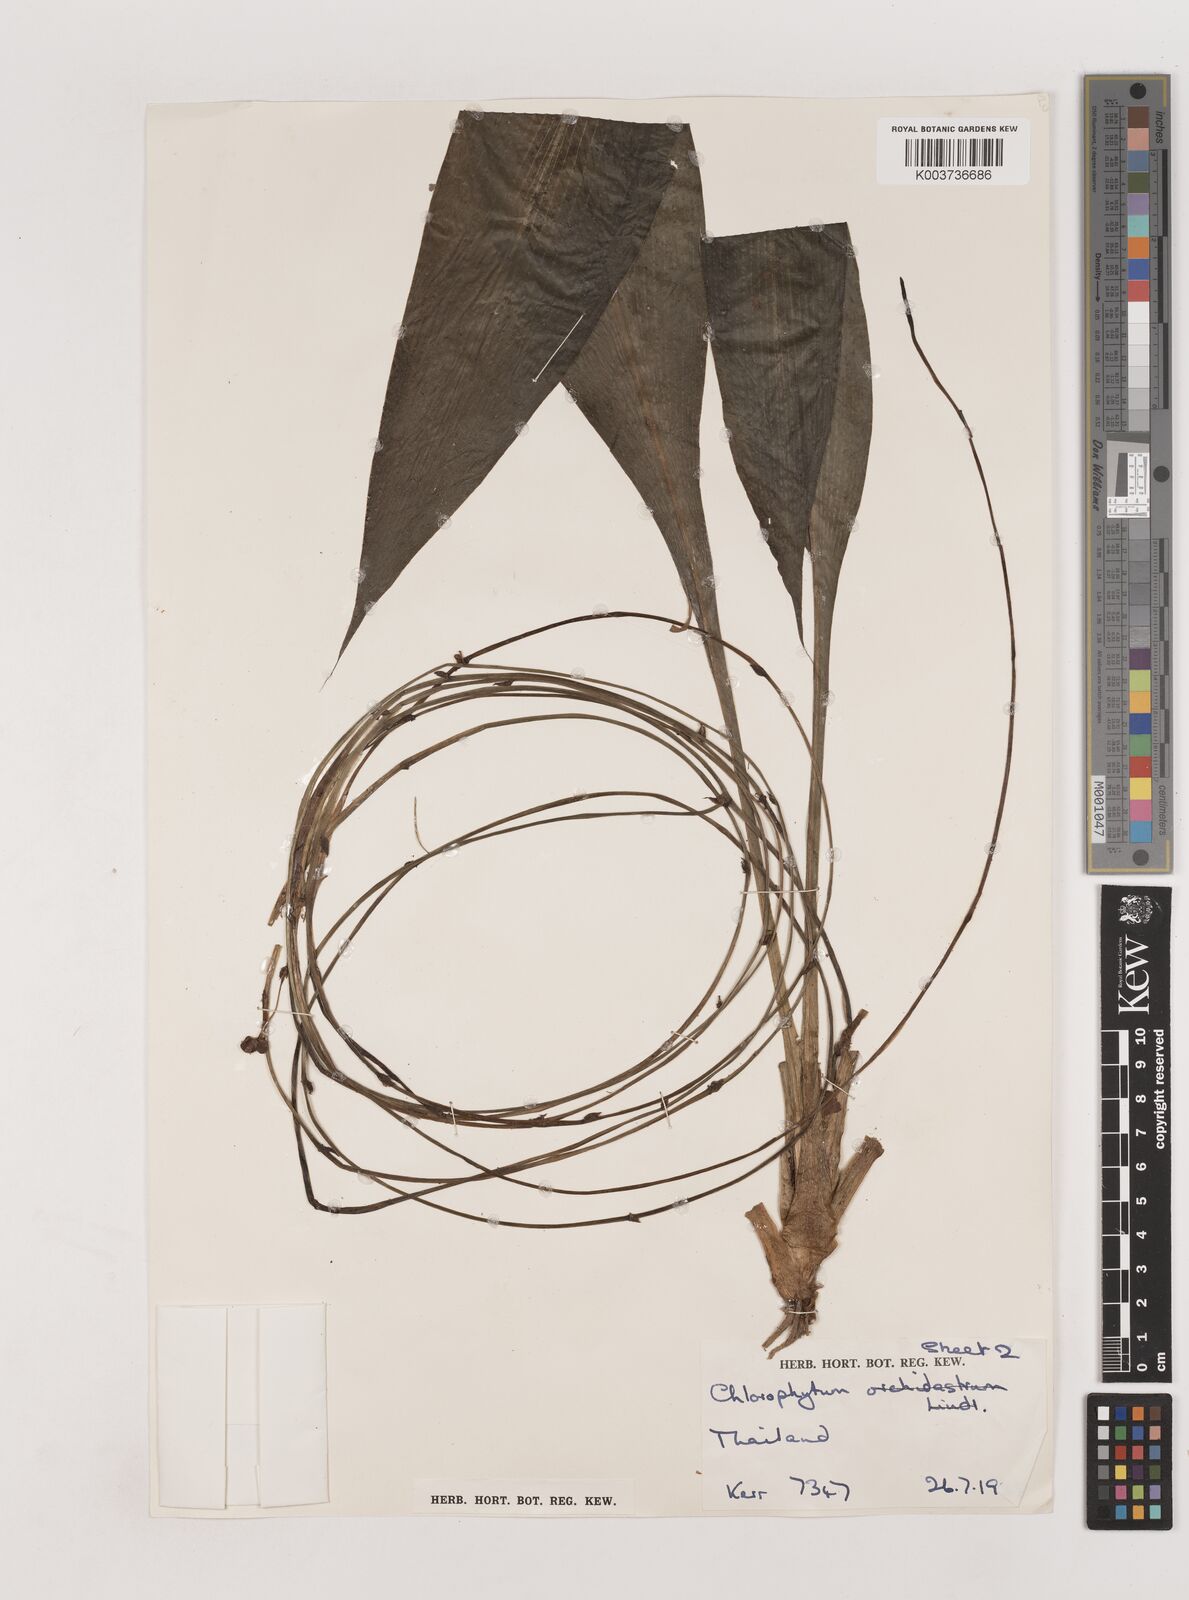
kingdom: Plantae
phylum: Tracheophyta
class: Liliopsida
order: Asparagales
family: Asparagaceae
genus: Chlorophytum
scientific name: Chlorophytum longissimum
